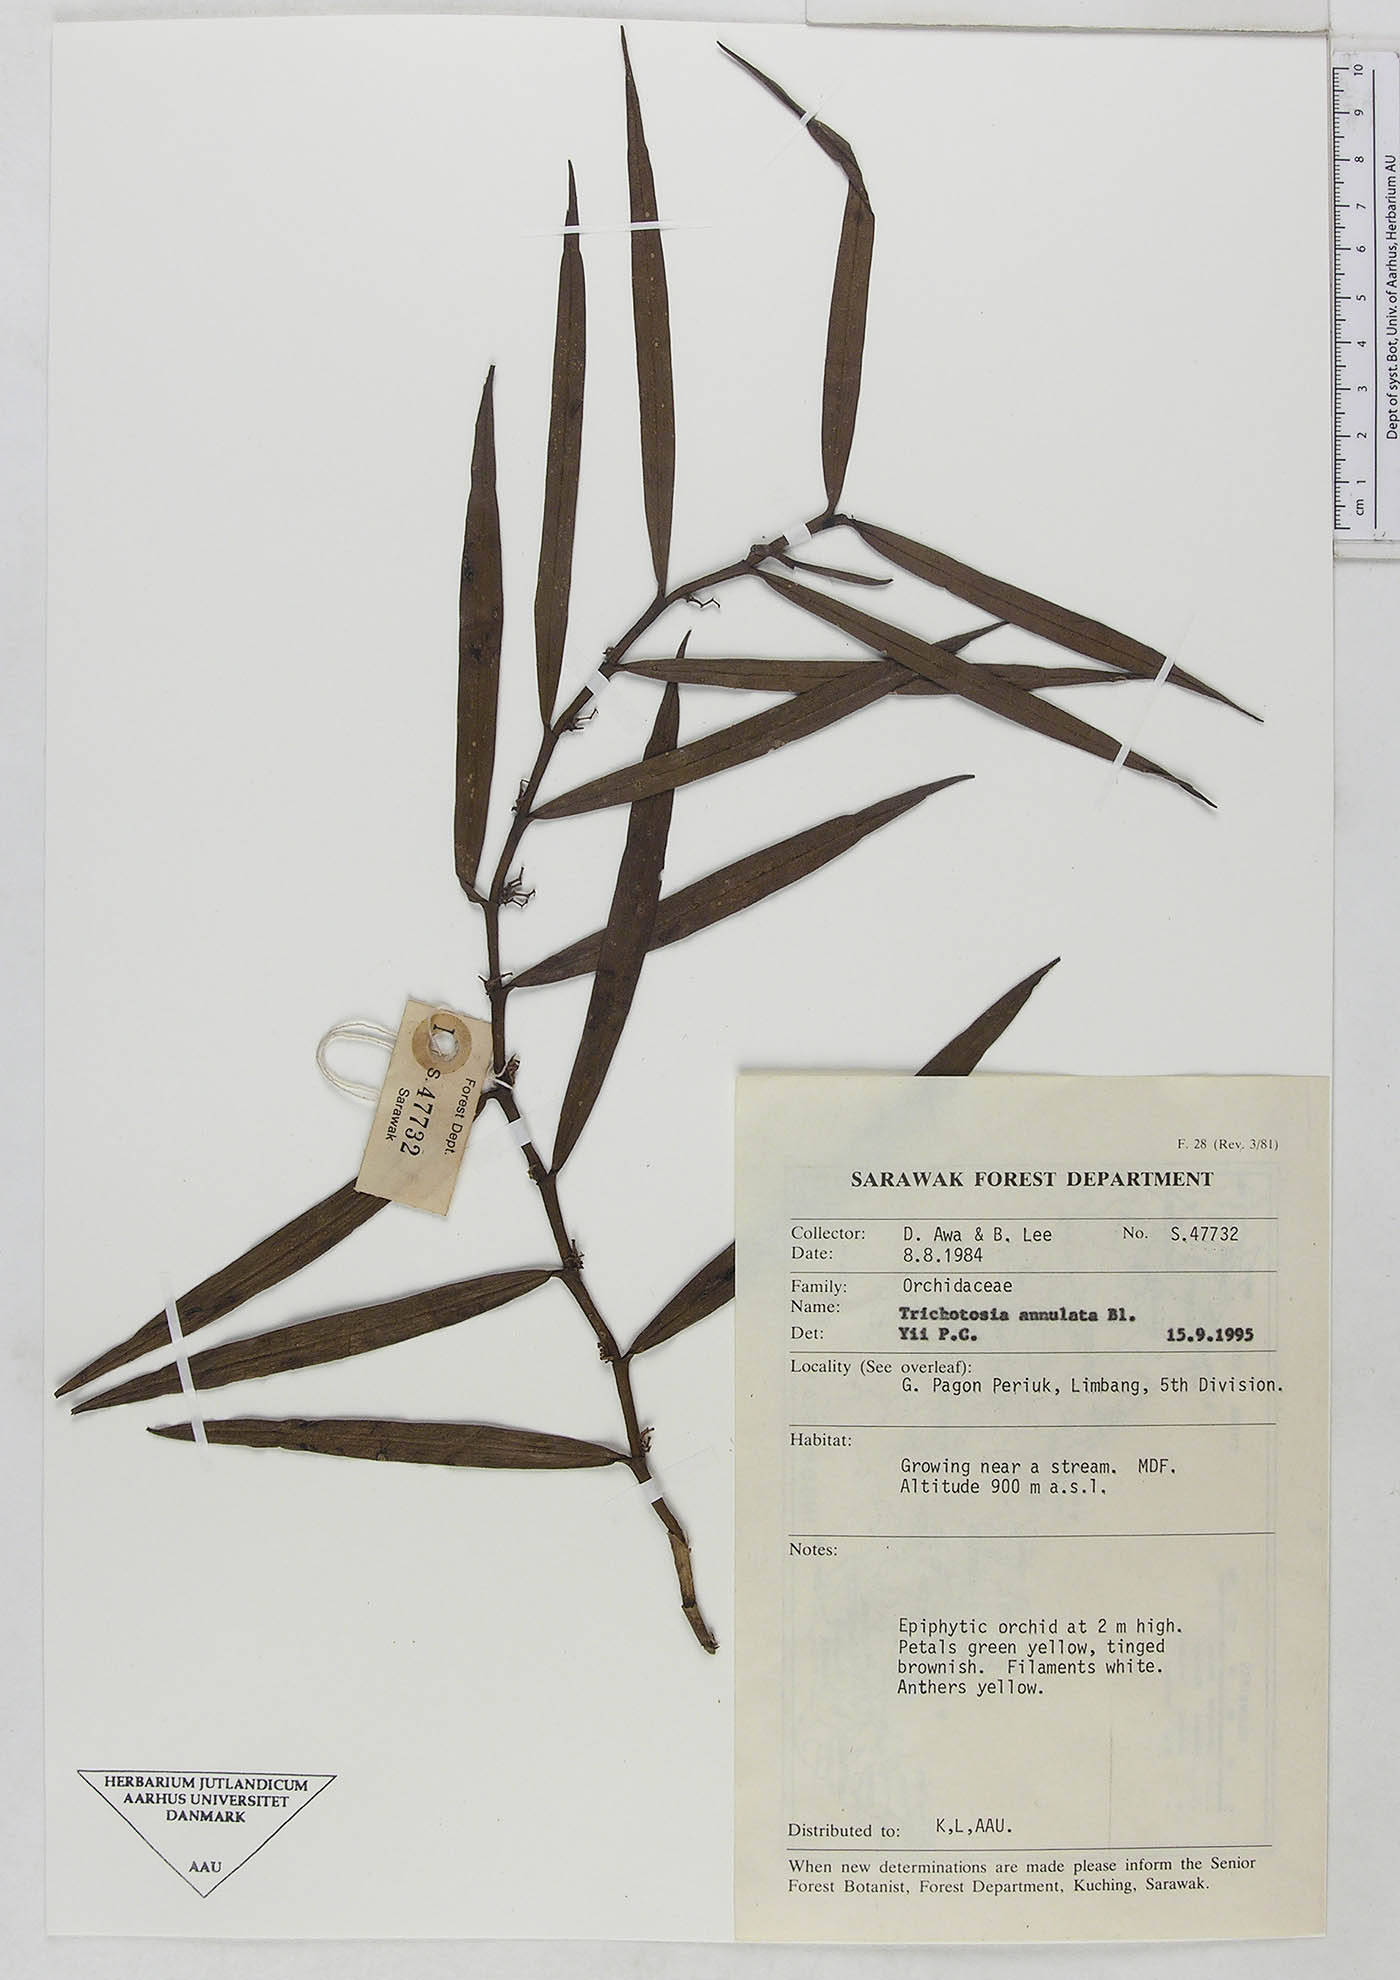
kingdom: Plantae
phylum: Tracheophyta
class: Liliopsida
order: Asparagales
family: Orchidaceae
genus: Trichotosia
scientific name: Trichotosia annulata
